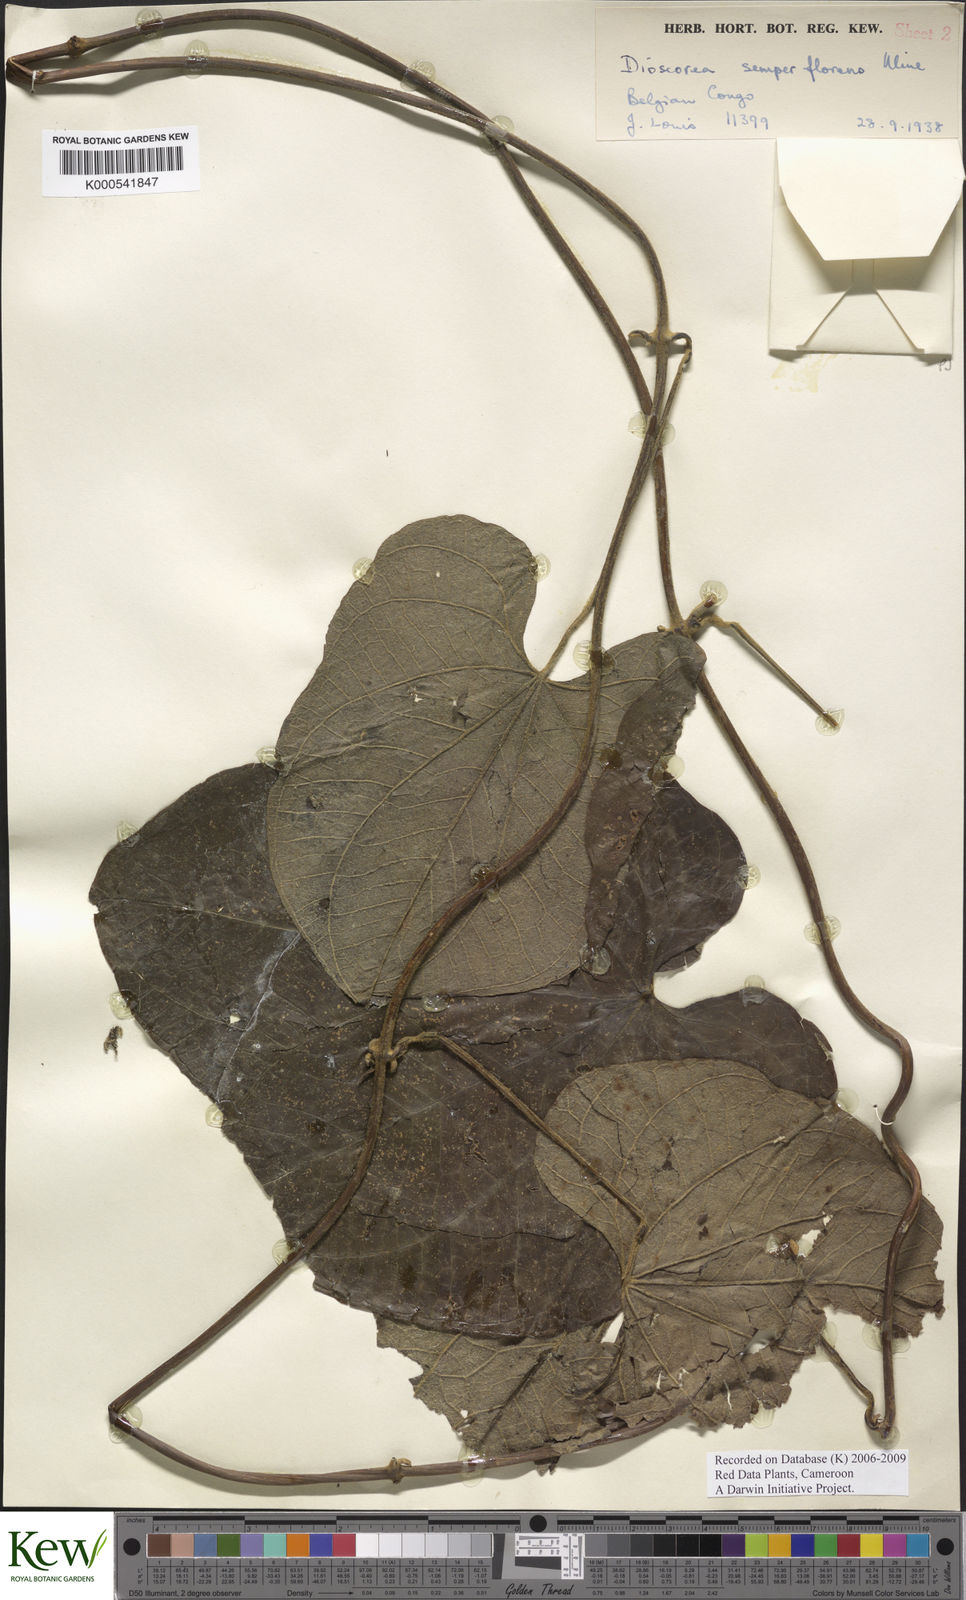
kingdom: Plantae
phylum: Tracheophyta
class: Liliopsida
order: Dioscoreales
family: Dioscoreaceae
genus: Dioscorea
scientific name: Dioscorea semperflorens
